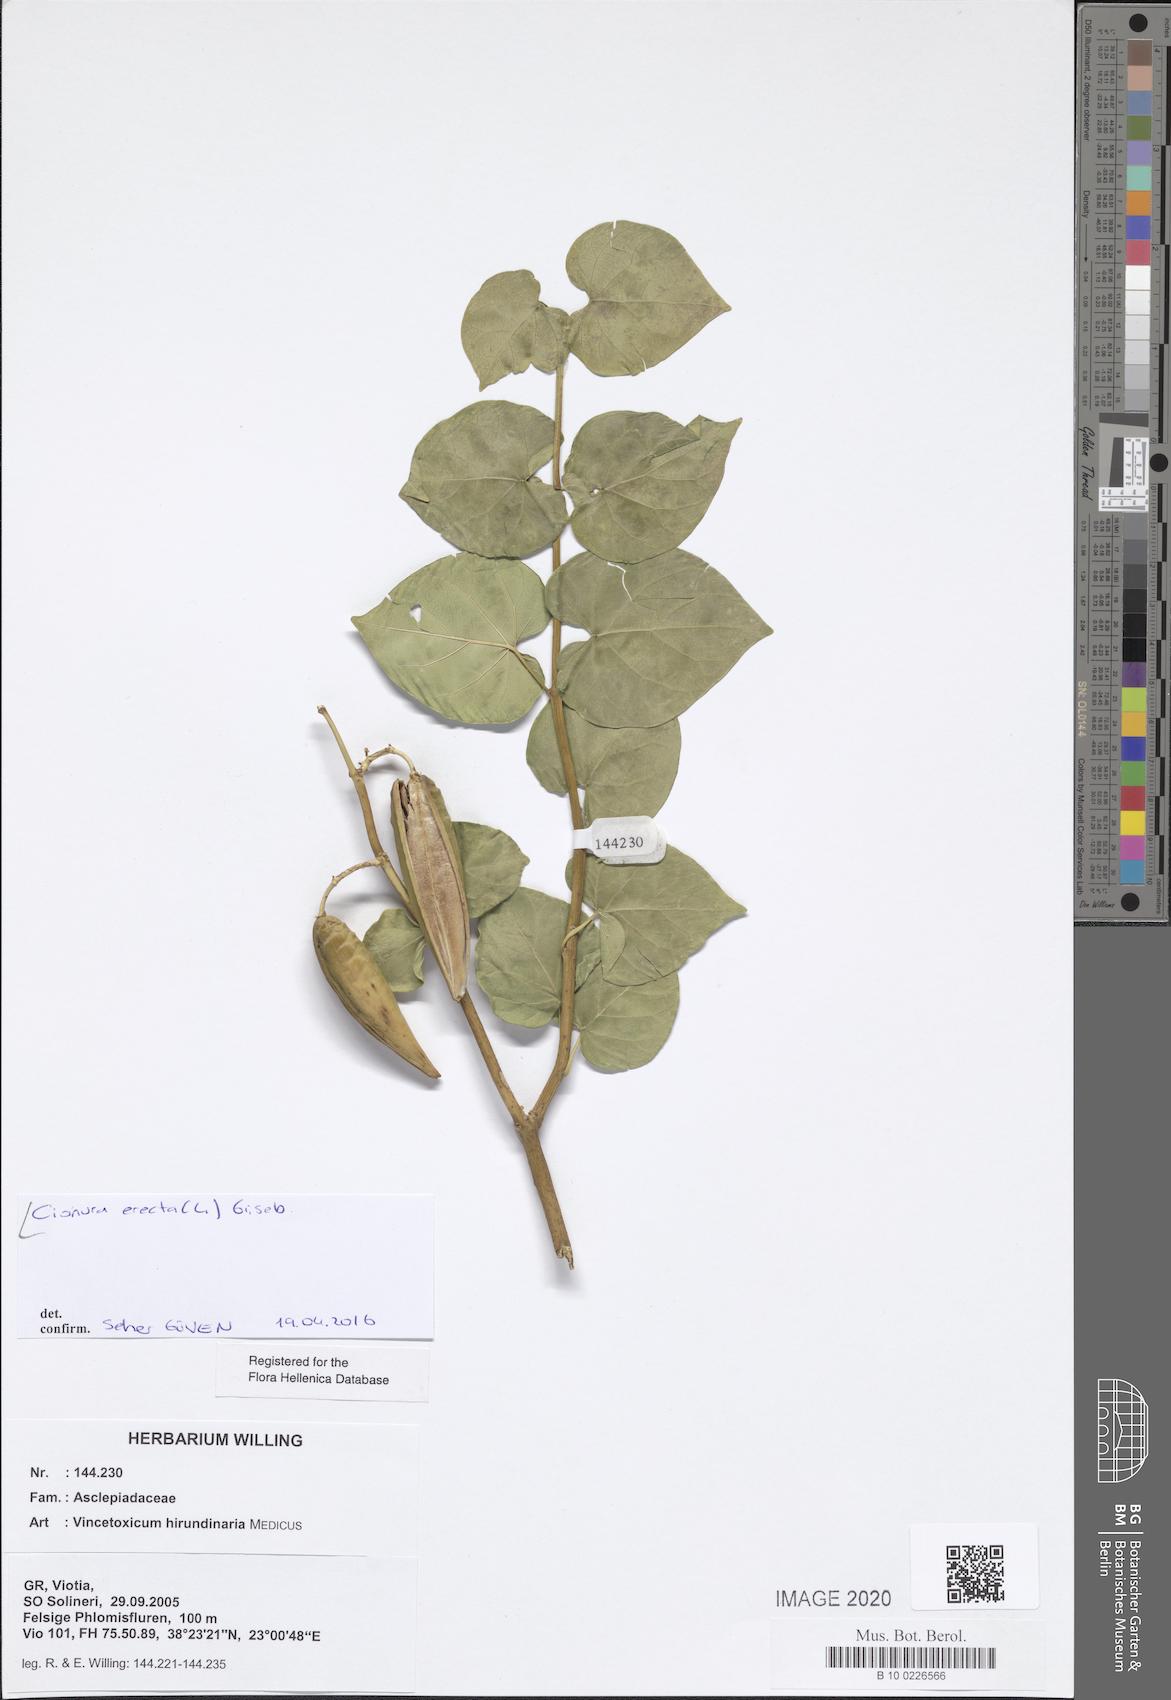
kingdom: Plantae
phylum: Tracheophyta
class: Magnoliopsida
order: Gentianales
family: Apocynaceae
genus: Cionura
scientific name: Cionura erecta
